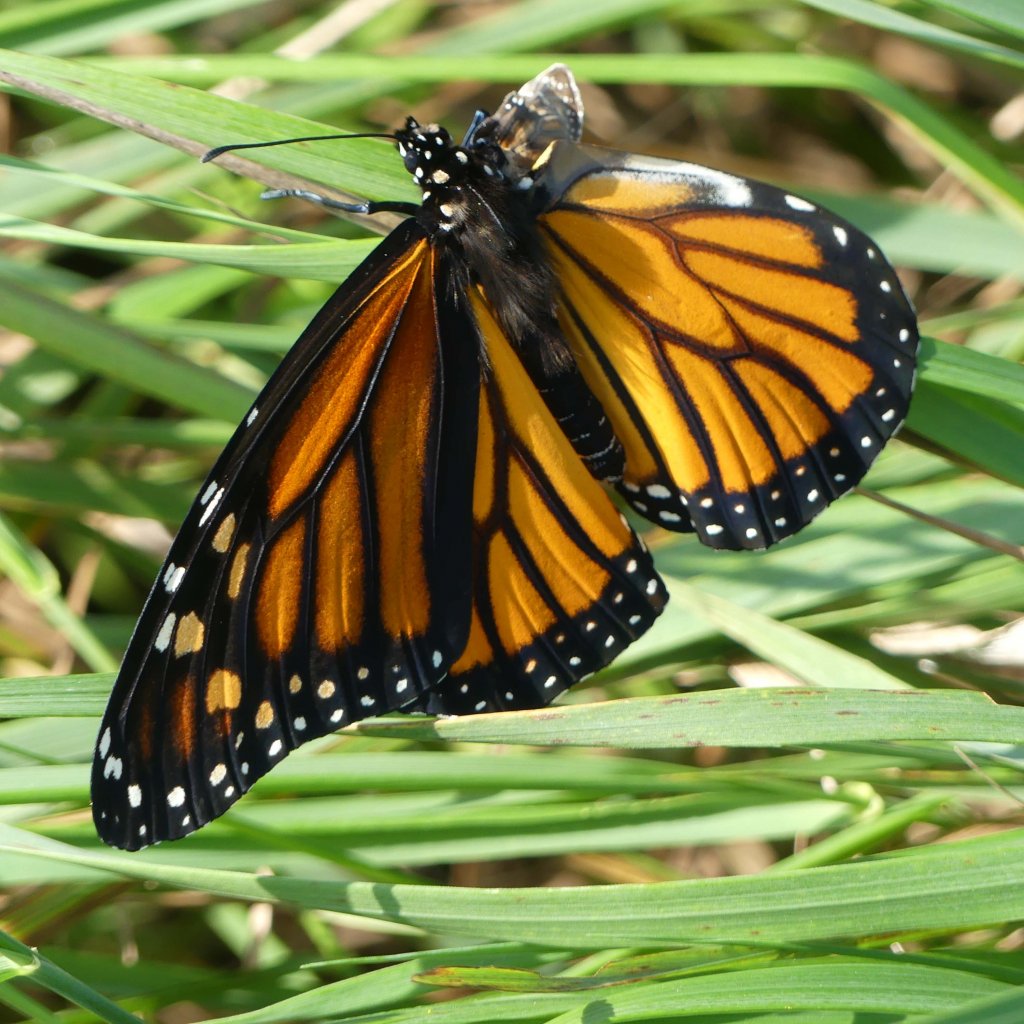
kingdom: Animalia
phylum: Arthropoda
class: Insecta
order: Lepidoptera
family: Nymphalidae
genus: Danaus
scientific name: Danaus plexippus
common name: Monarch
